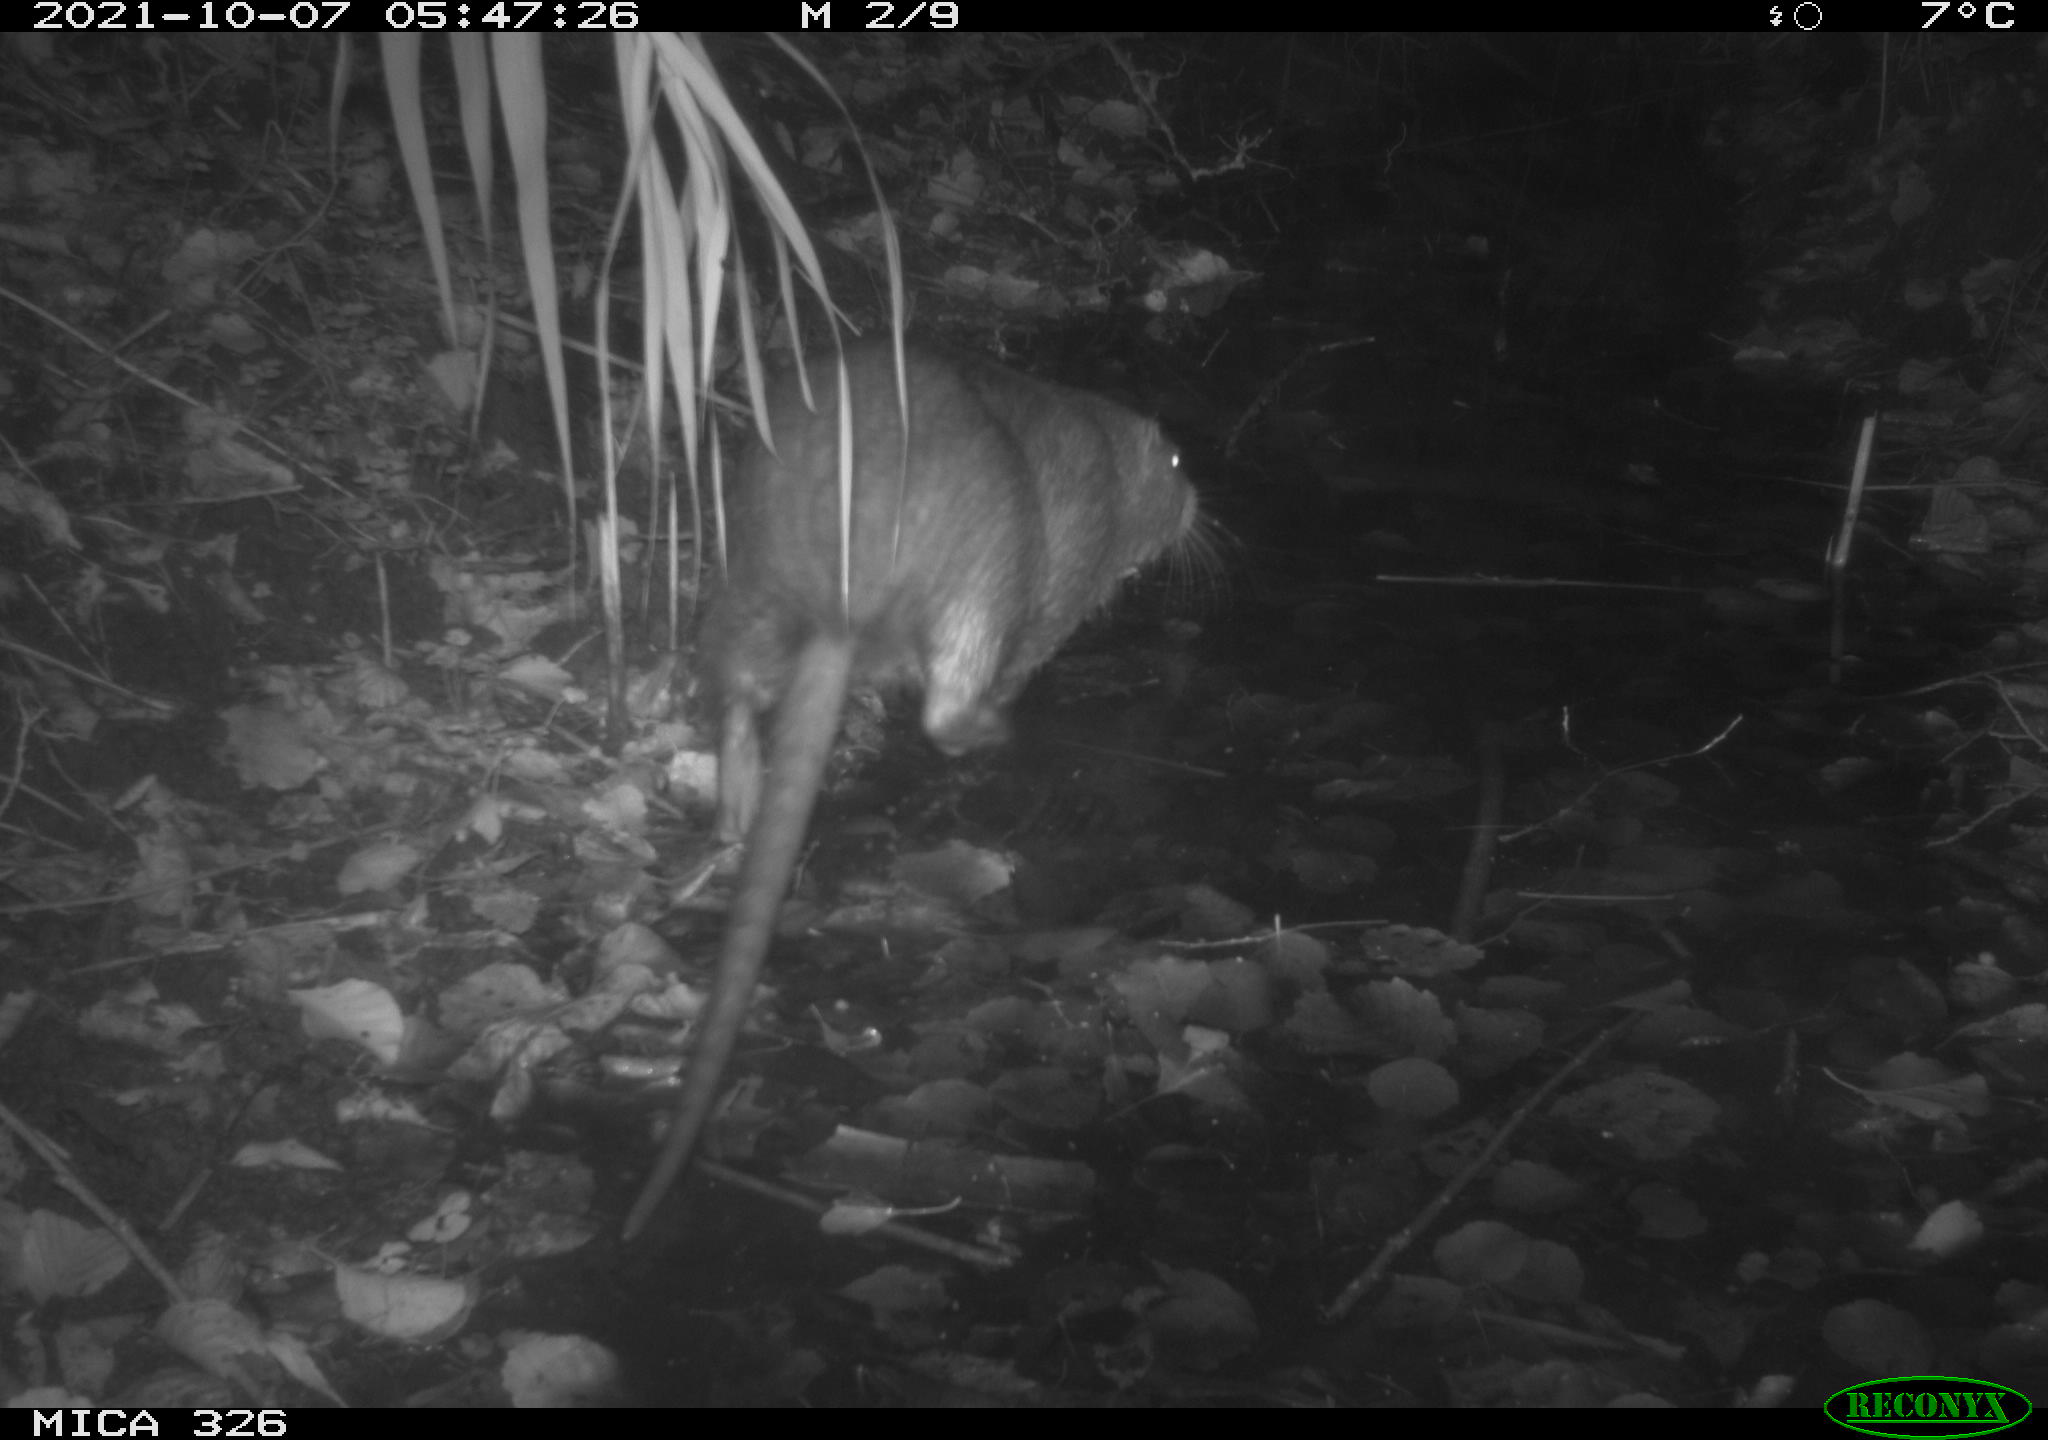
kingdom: Animalia
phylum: Chordata
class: Mammalia
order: Rodentia
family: Myocastoridae
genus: Myocastor
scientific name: Myocastor coypus
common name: Coypu
